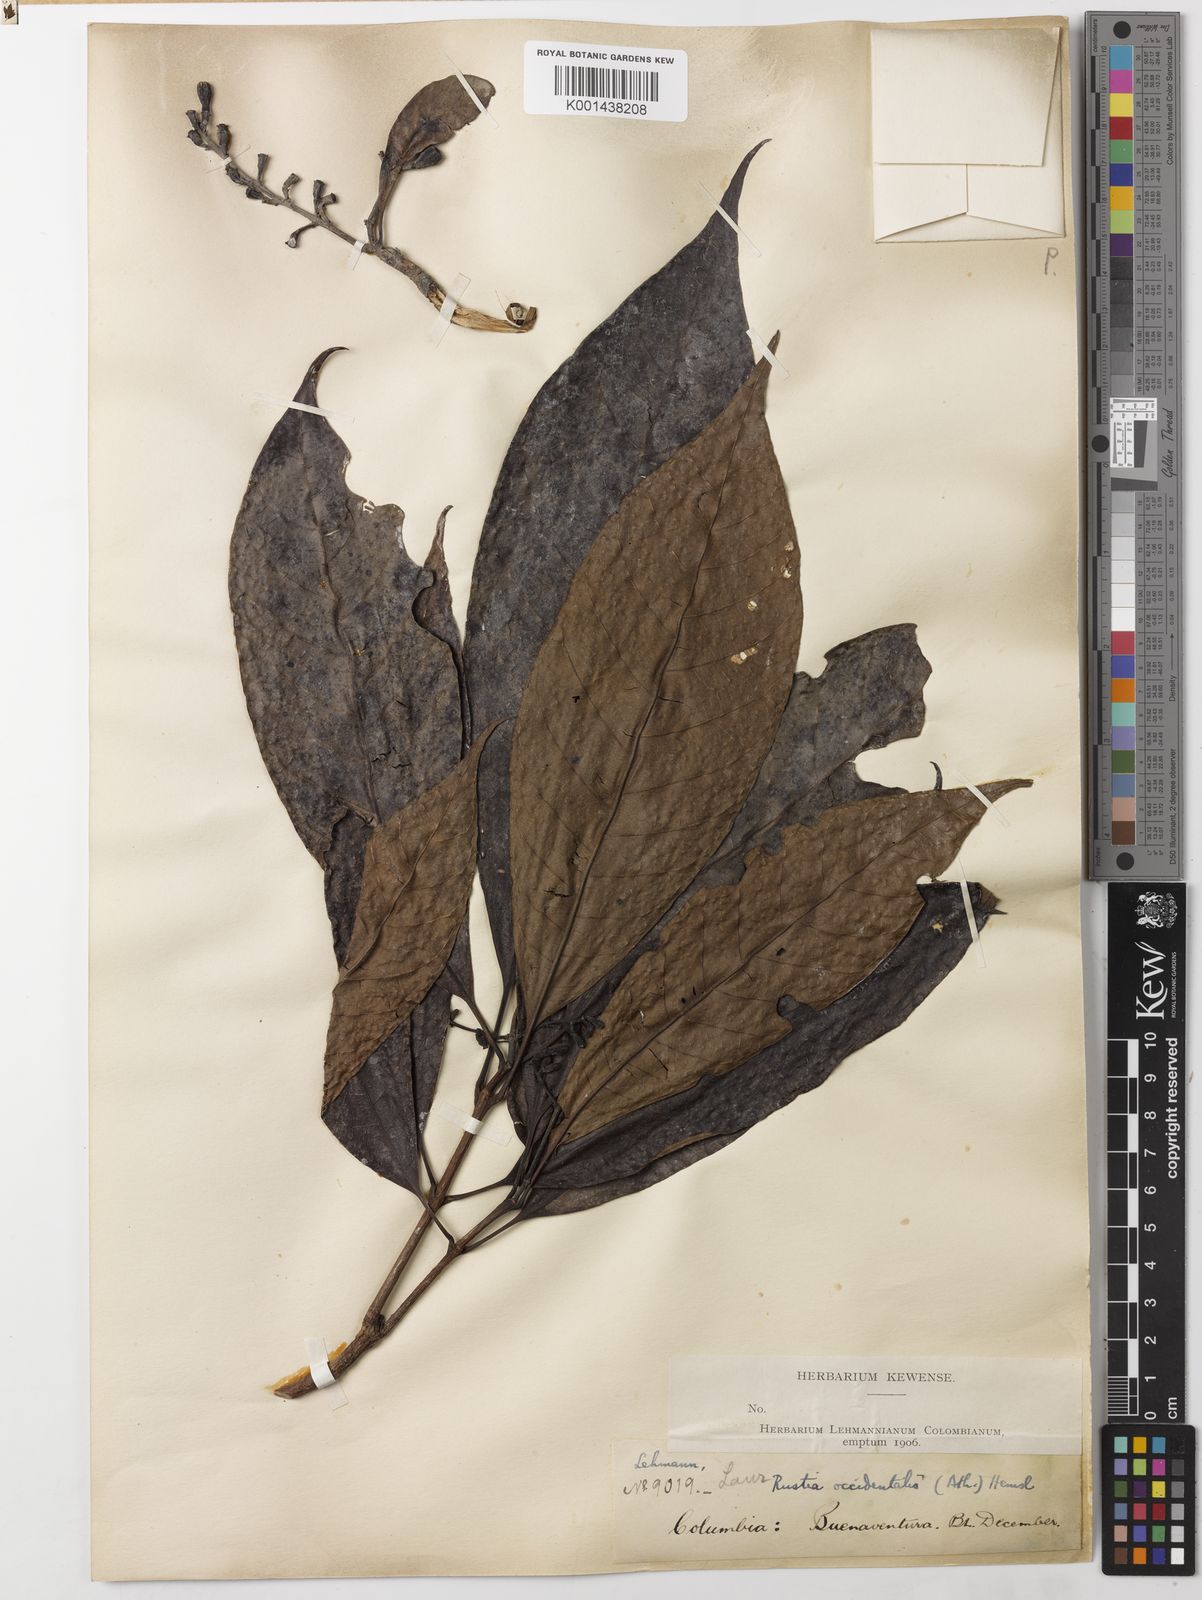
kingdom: Plantae
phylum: Tracheophyta
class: Magnoliopsida
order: Gentianales
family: Rubiaceae
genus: Rustia
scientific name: Rustia occidentalis
